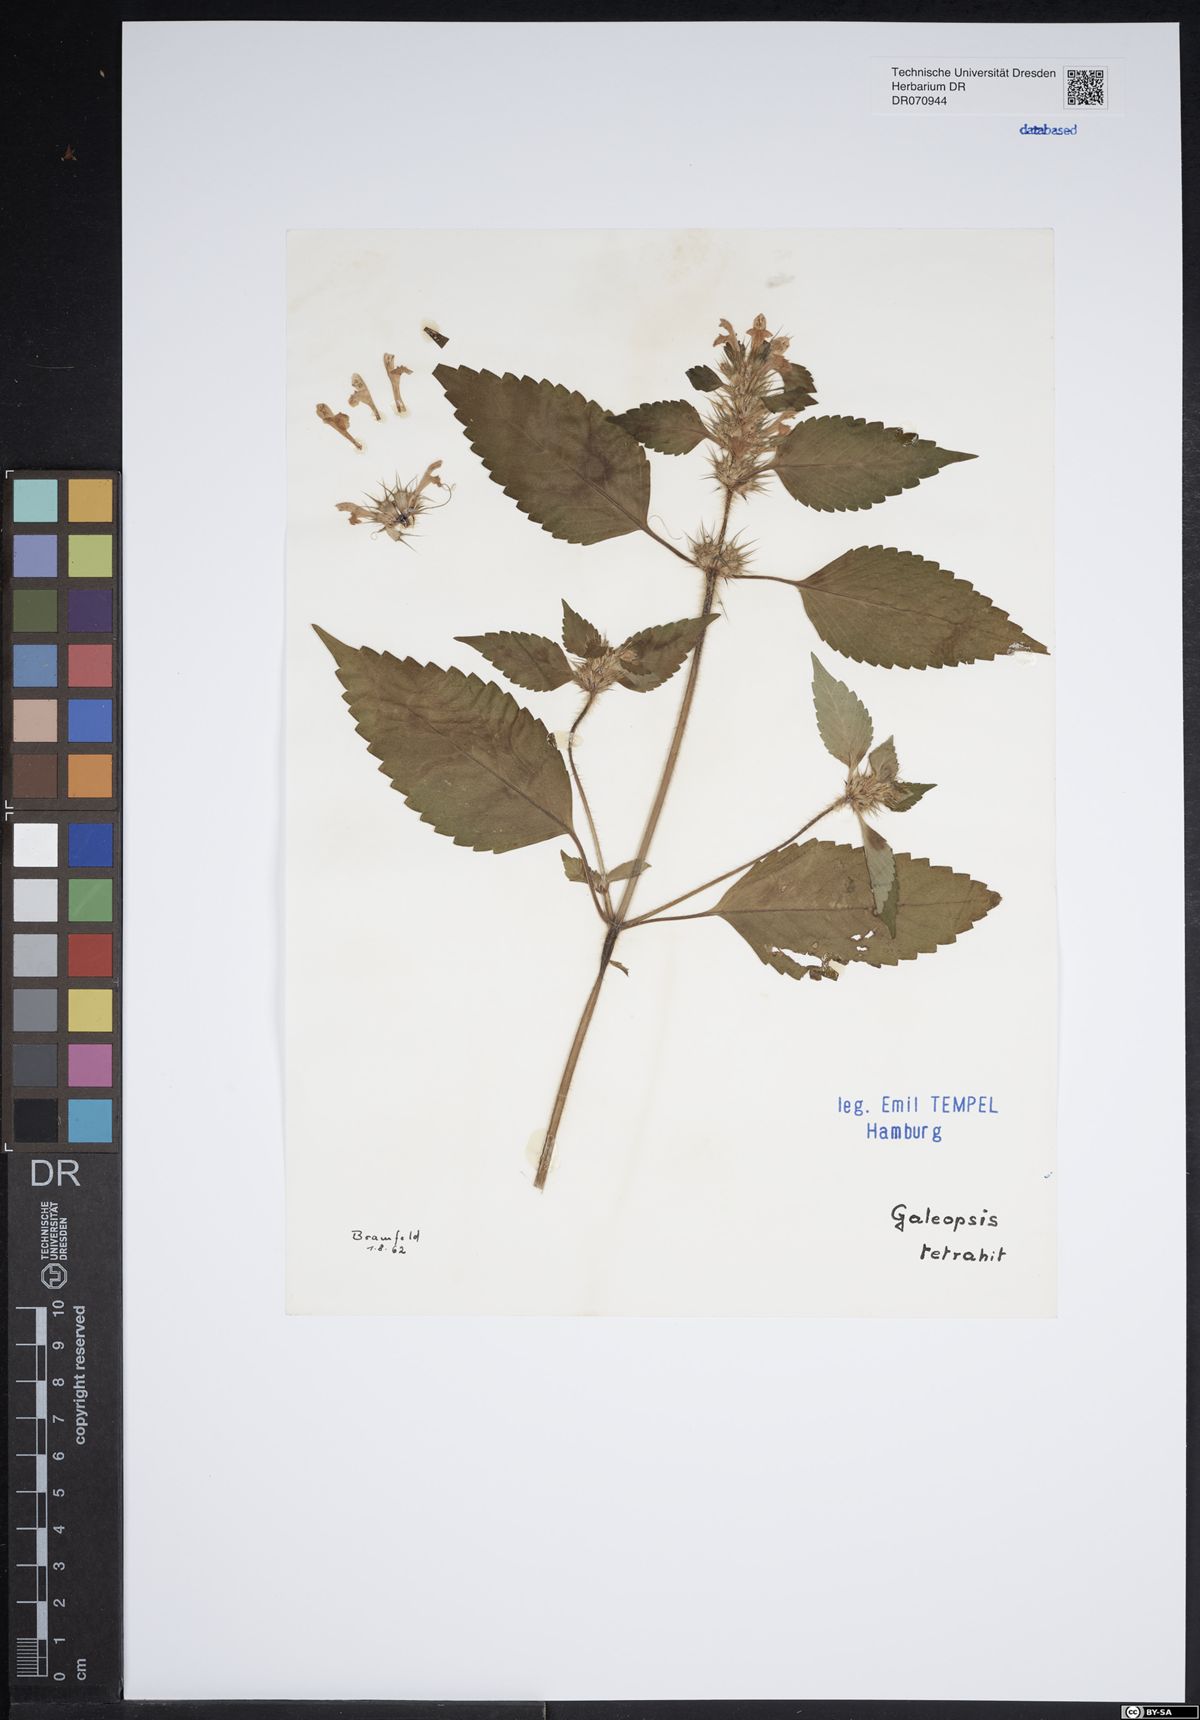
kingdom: Plantae
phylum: Tracheophyta
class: Magnoliopsida
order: Lamiales
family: Lamiaceae
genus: Galeopsis
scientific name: Galeopsis tetrahit
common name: Common hemp-nettle
